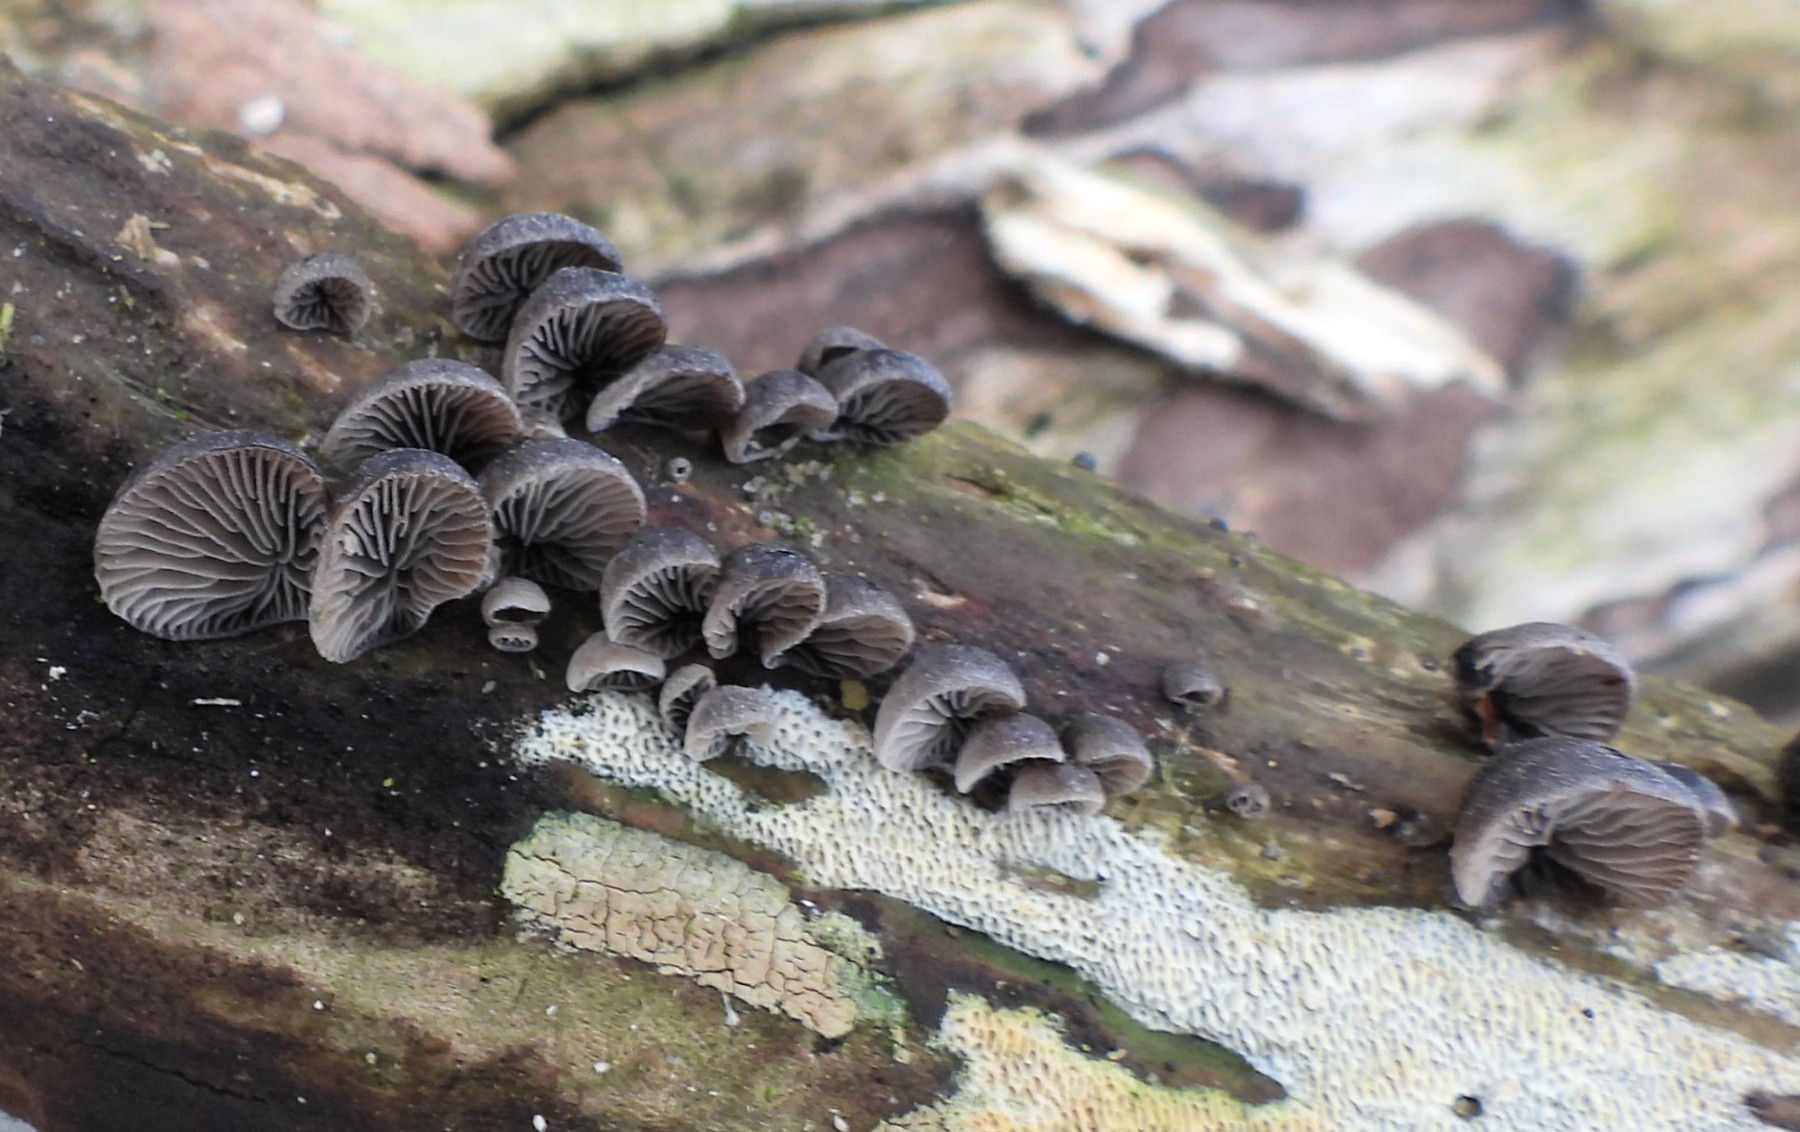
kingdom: Fungi
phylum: Basidiomycota
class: Agaricomycetes
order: Agaricales
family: Pleurotaceae
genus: Resupinatus
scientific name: Resupinatus trichotis
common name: mørkfiltet barkhat
